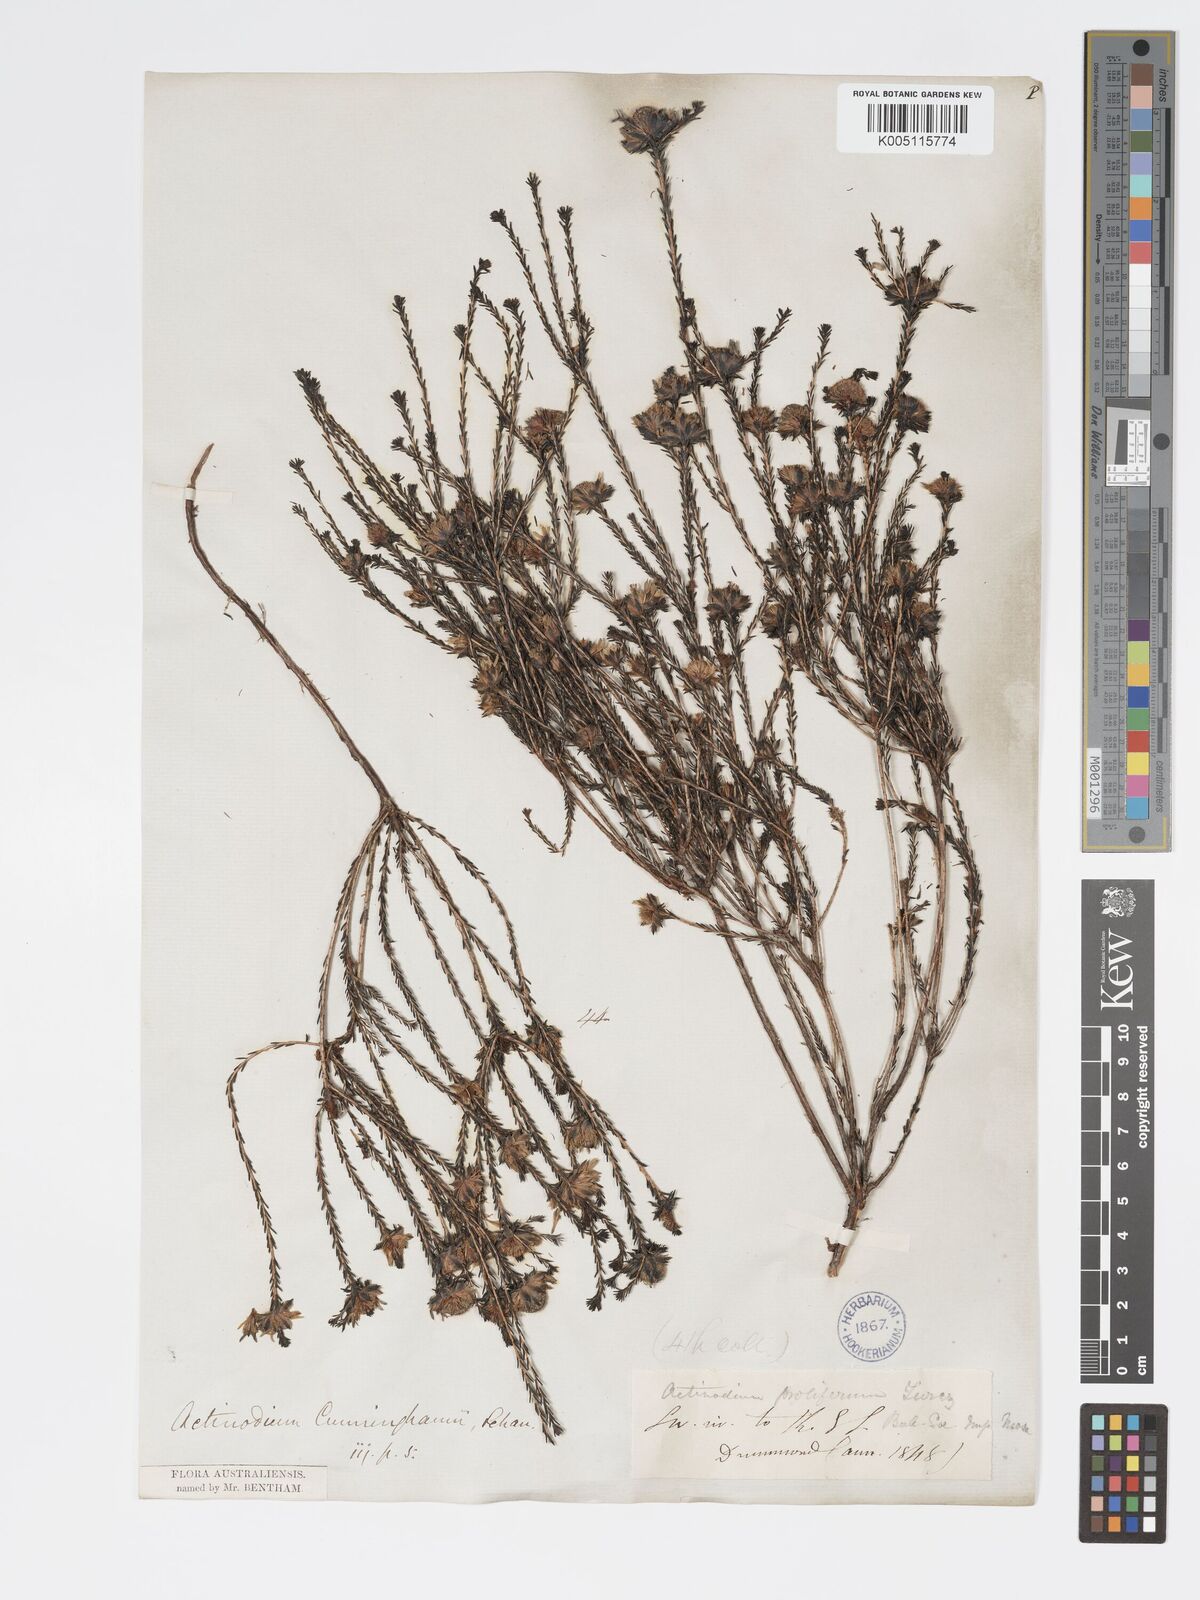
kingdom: Plantae
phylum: Tracheophyta
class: Magnoliopsida
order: Myrtales
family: Myrtaceae
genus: Actinodium
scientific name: Actinodium cunninghamii
